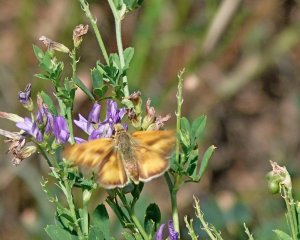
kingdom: Animalia
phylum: Arthropoda
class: Insecta
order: Lepidoptera
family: Hesperiidae
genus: Ochlodes
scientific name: Ochlodes sylvanoides
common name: Woodland Skipper
